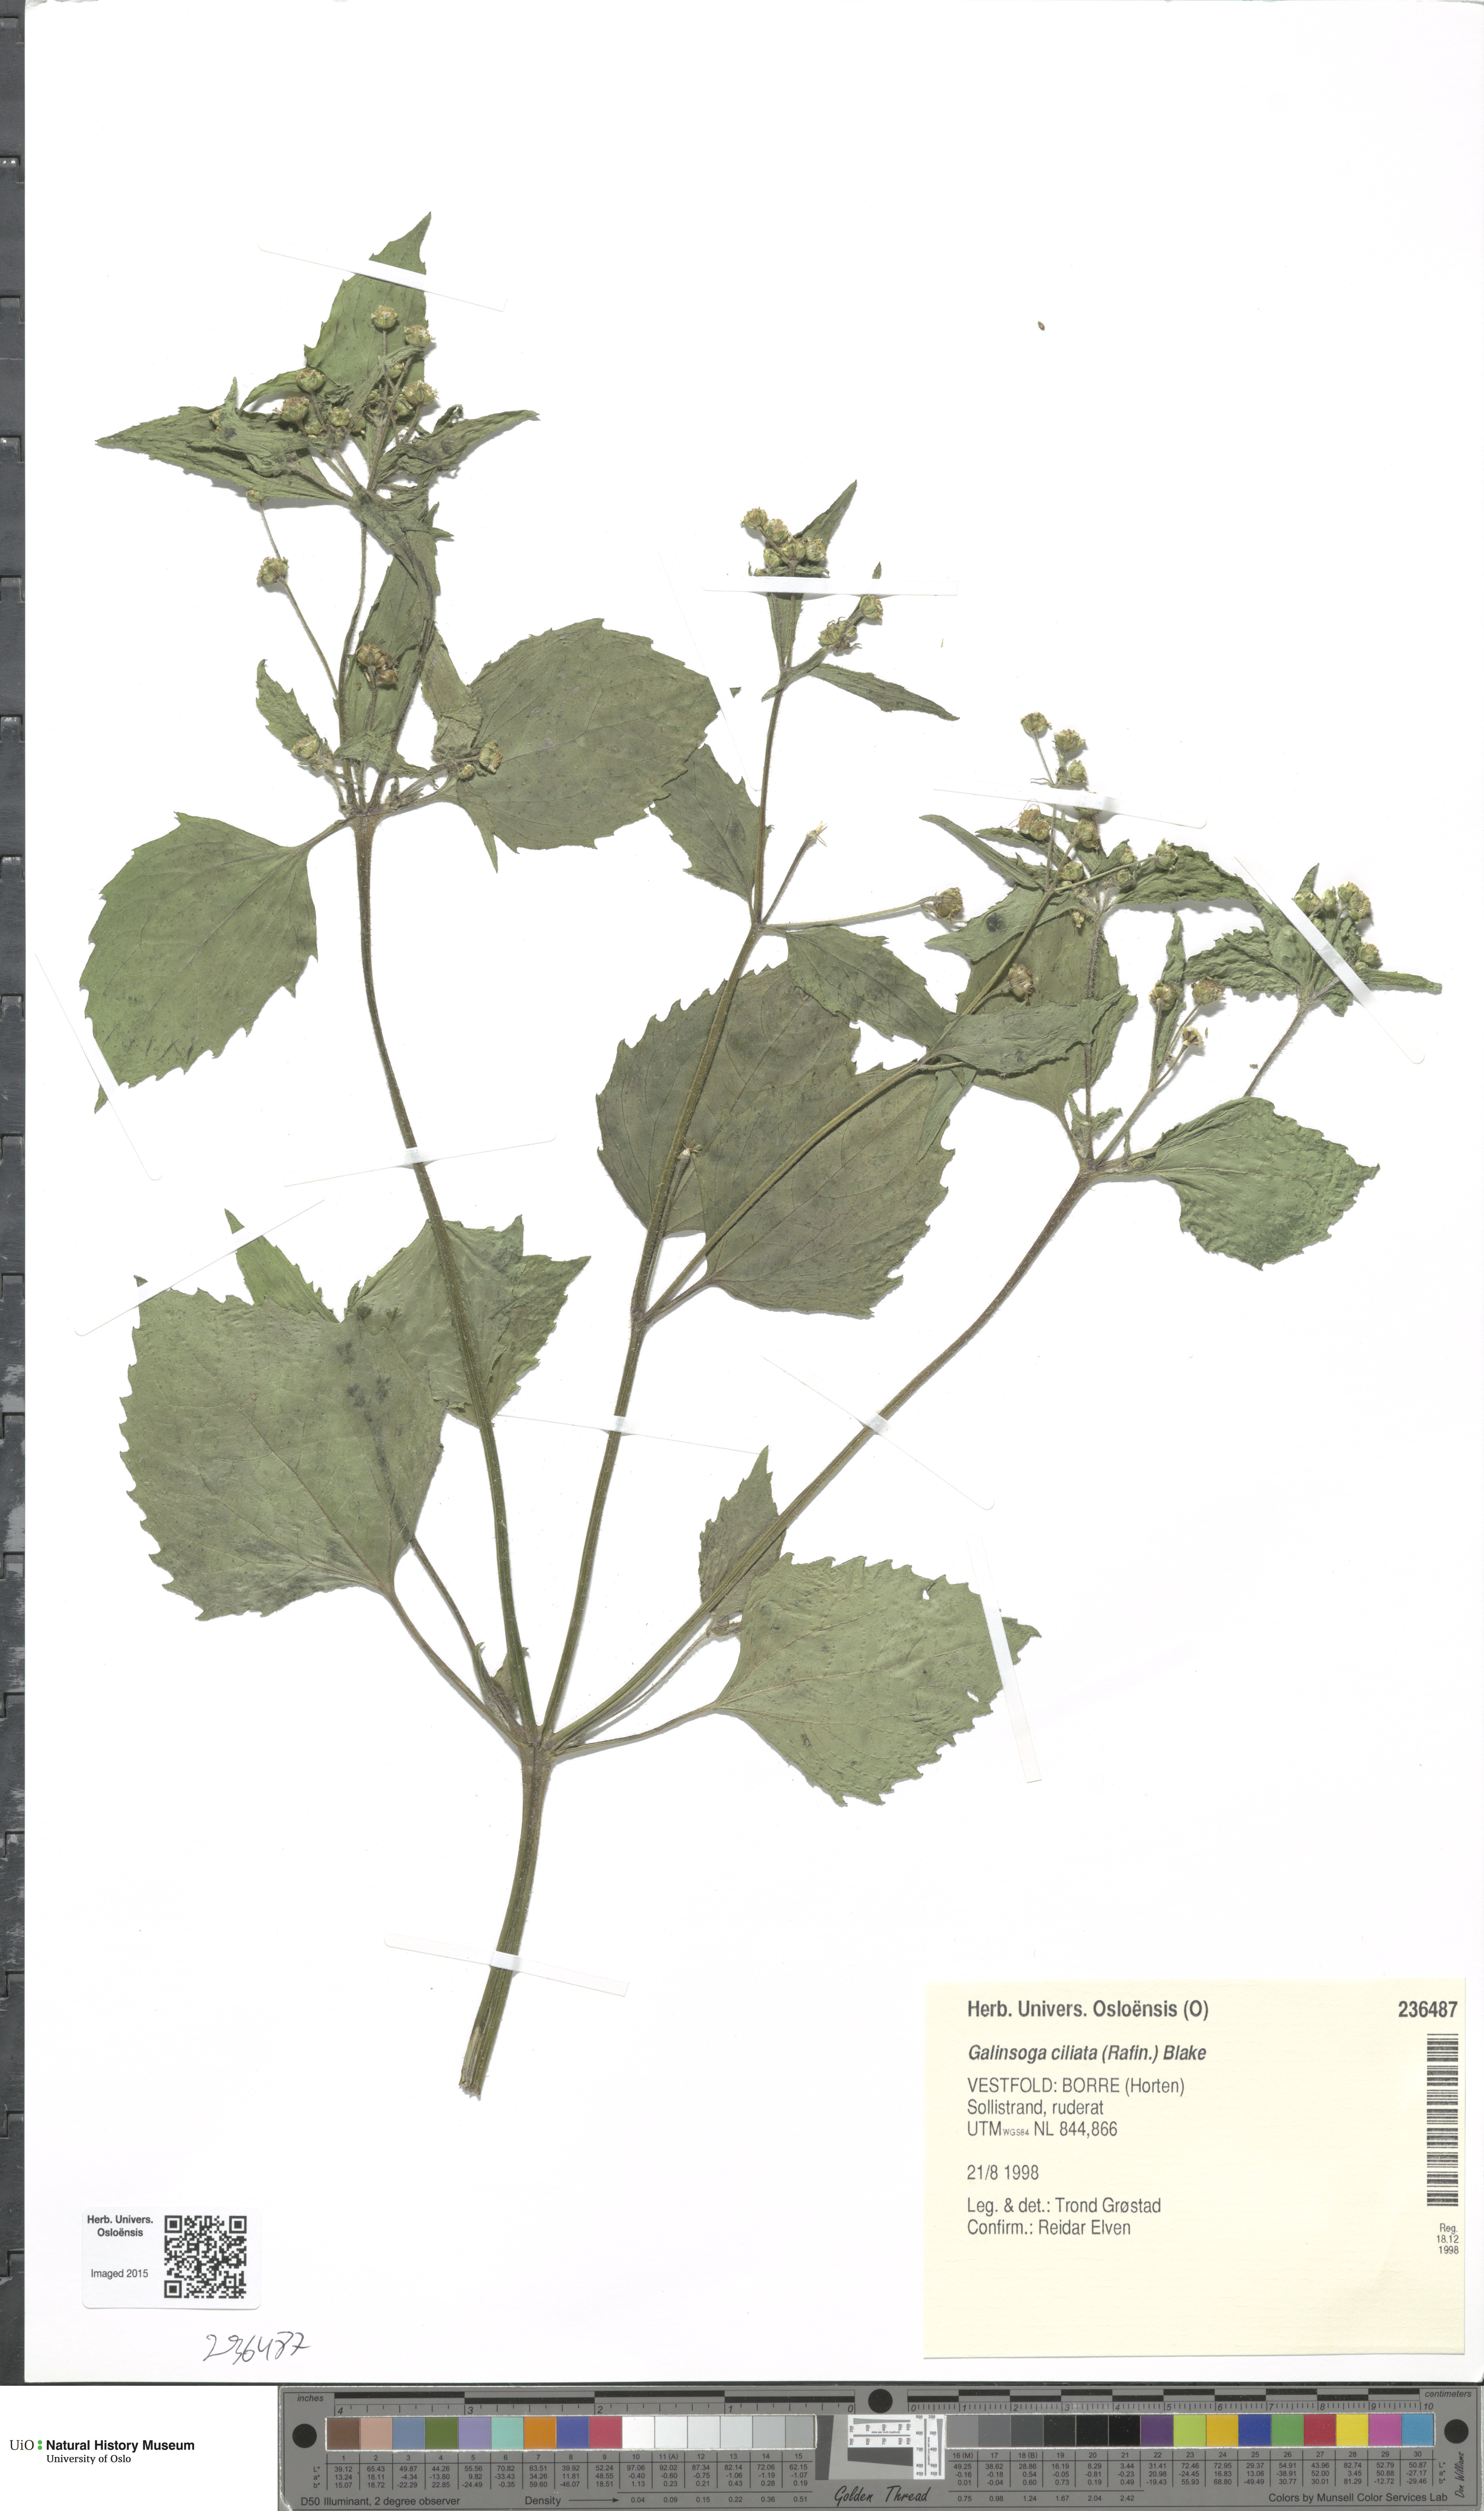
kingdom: Plantae
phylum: Tracheophyta
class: Magnoliopsida
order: Asterales
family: Asteraceae
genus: Galinsoga
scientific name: Galinsoga quadriradiata
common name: Shaggy soldier
